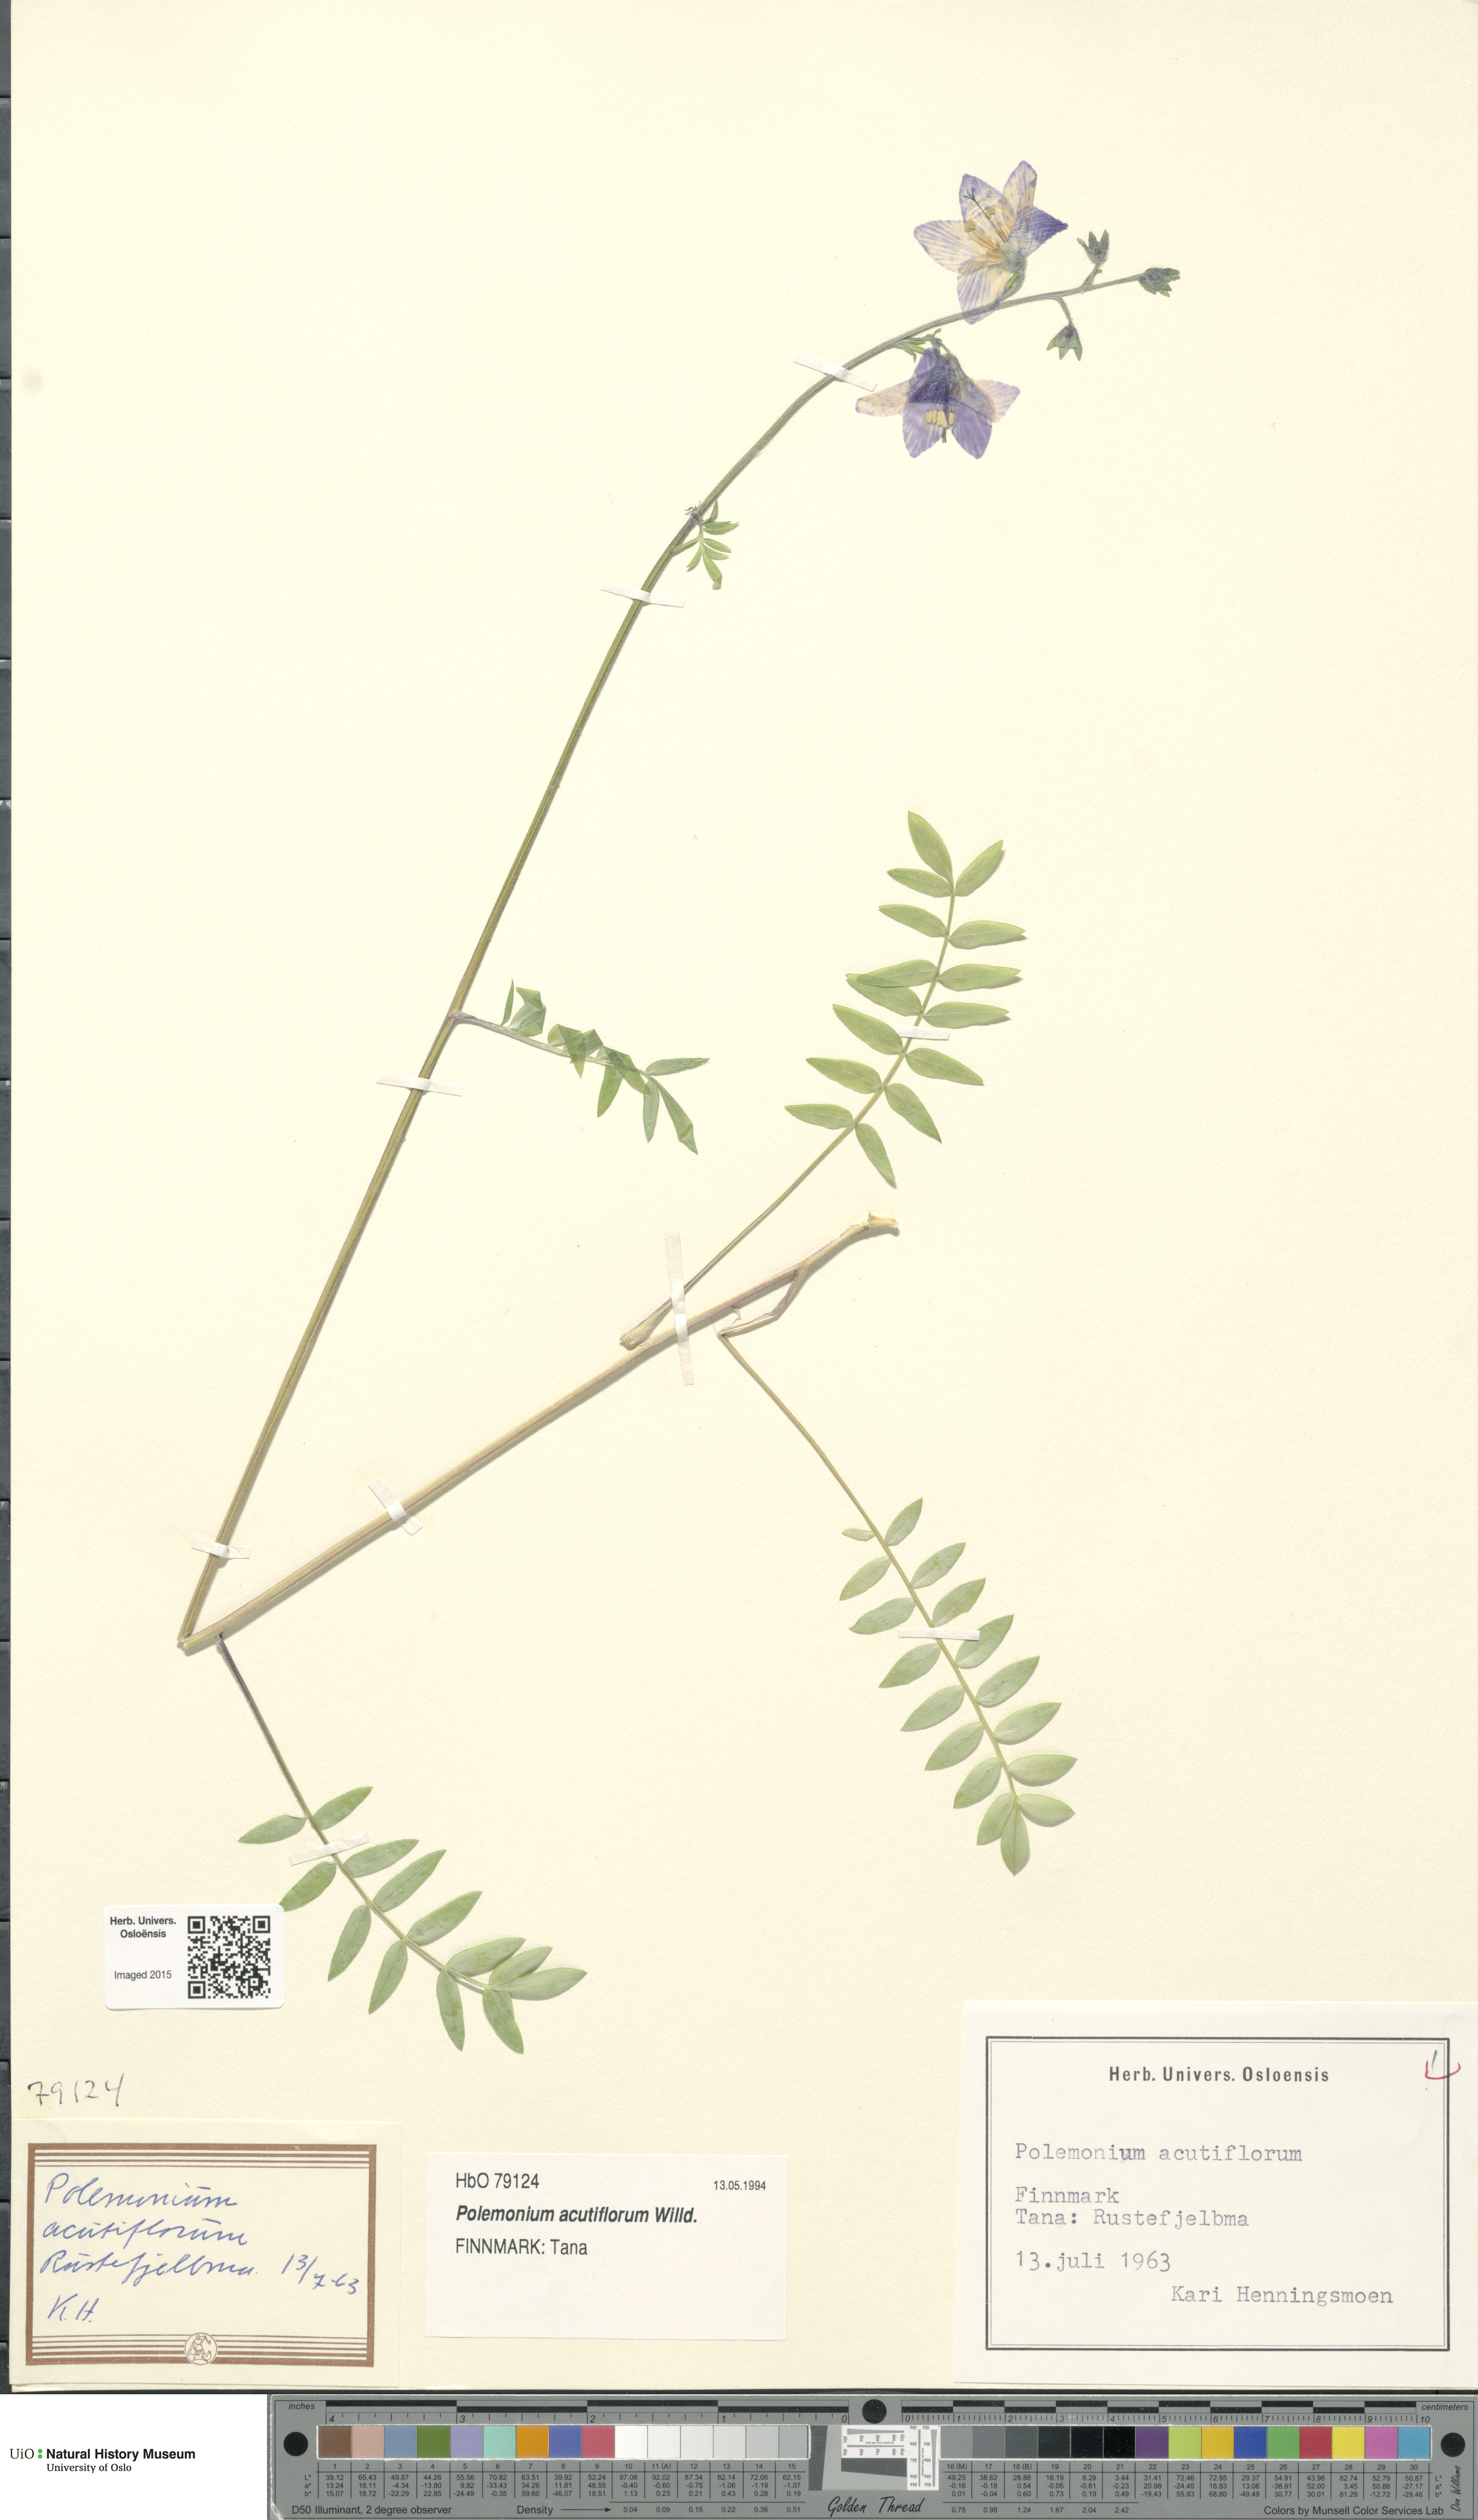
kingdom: Plantae
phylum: Tracheophyta
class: Magnoliopsida
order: Ericales
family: Polemoniaceae
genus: Polemonium
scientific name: Polemonium villosum
